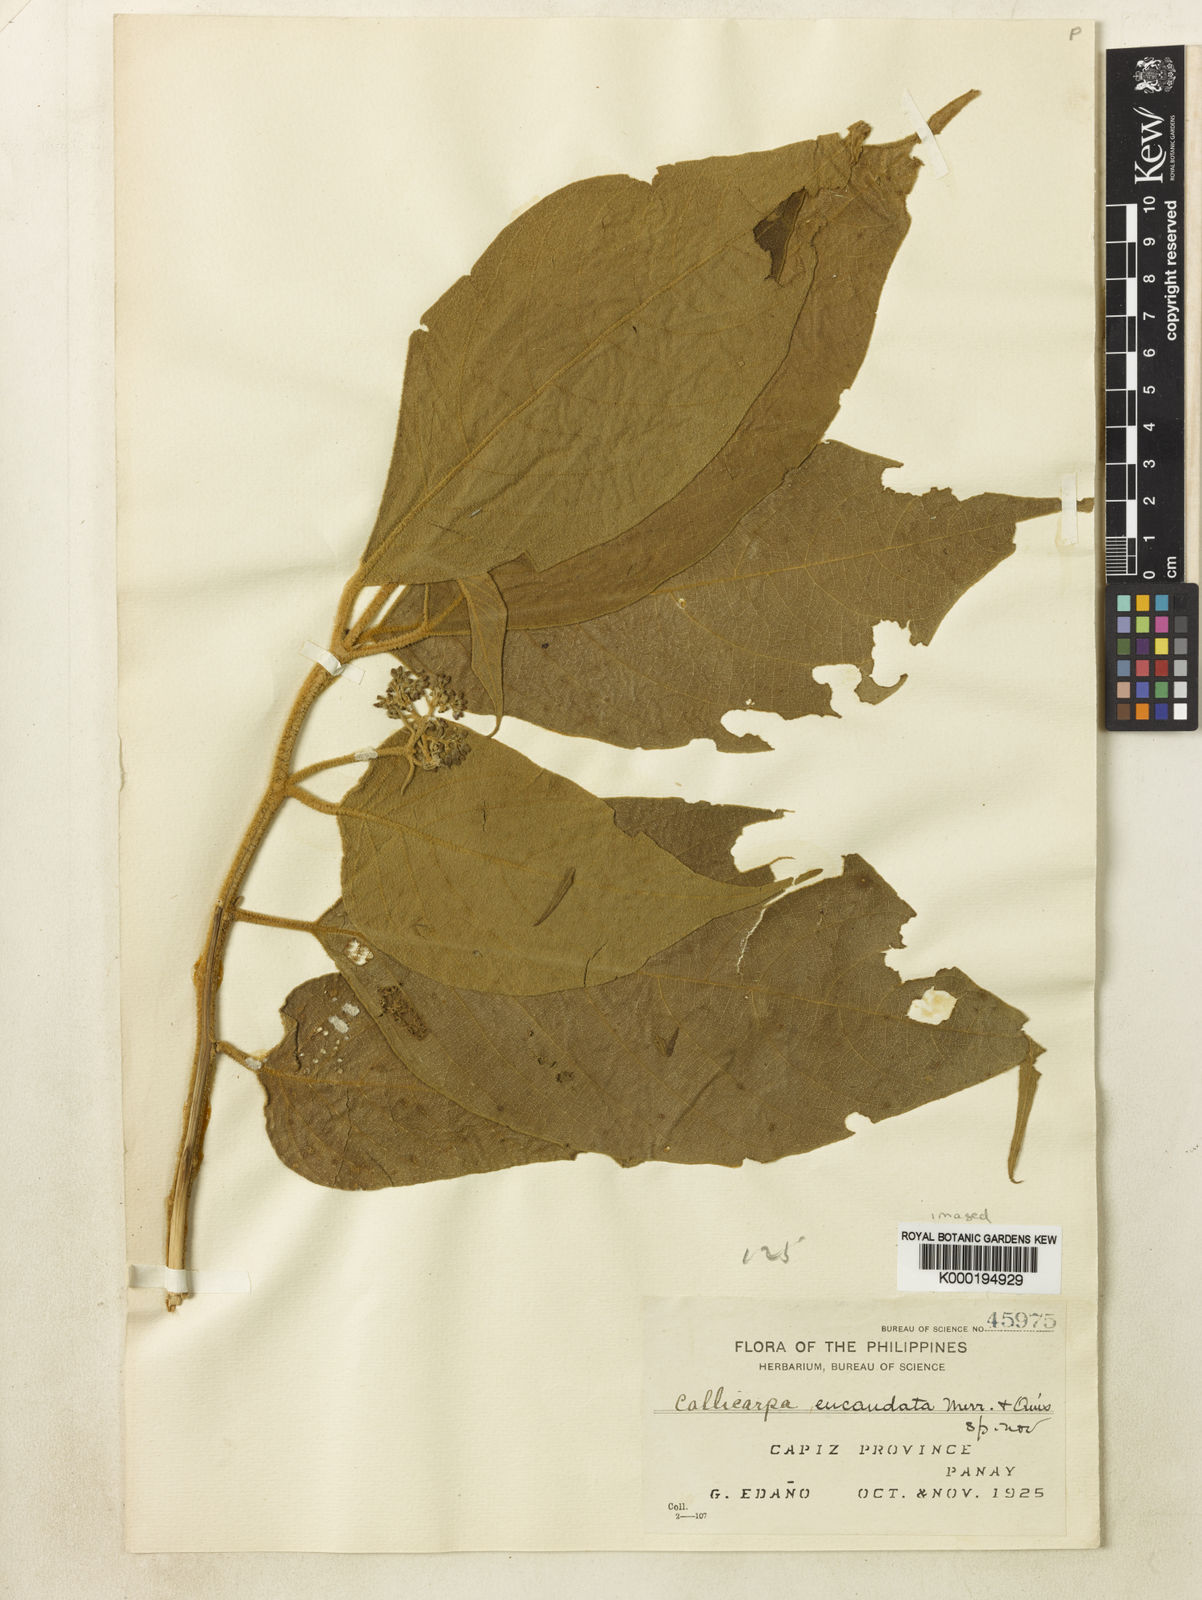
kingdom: Plantae
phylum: Tracheophyta
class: Magnoliopsida
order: Lamiales
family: Lamiaceae
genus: Callicarpa
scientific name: Callicarpa
